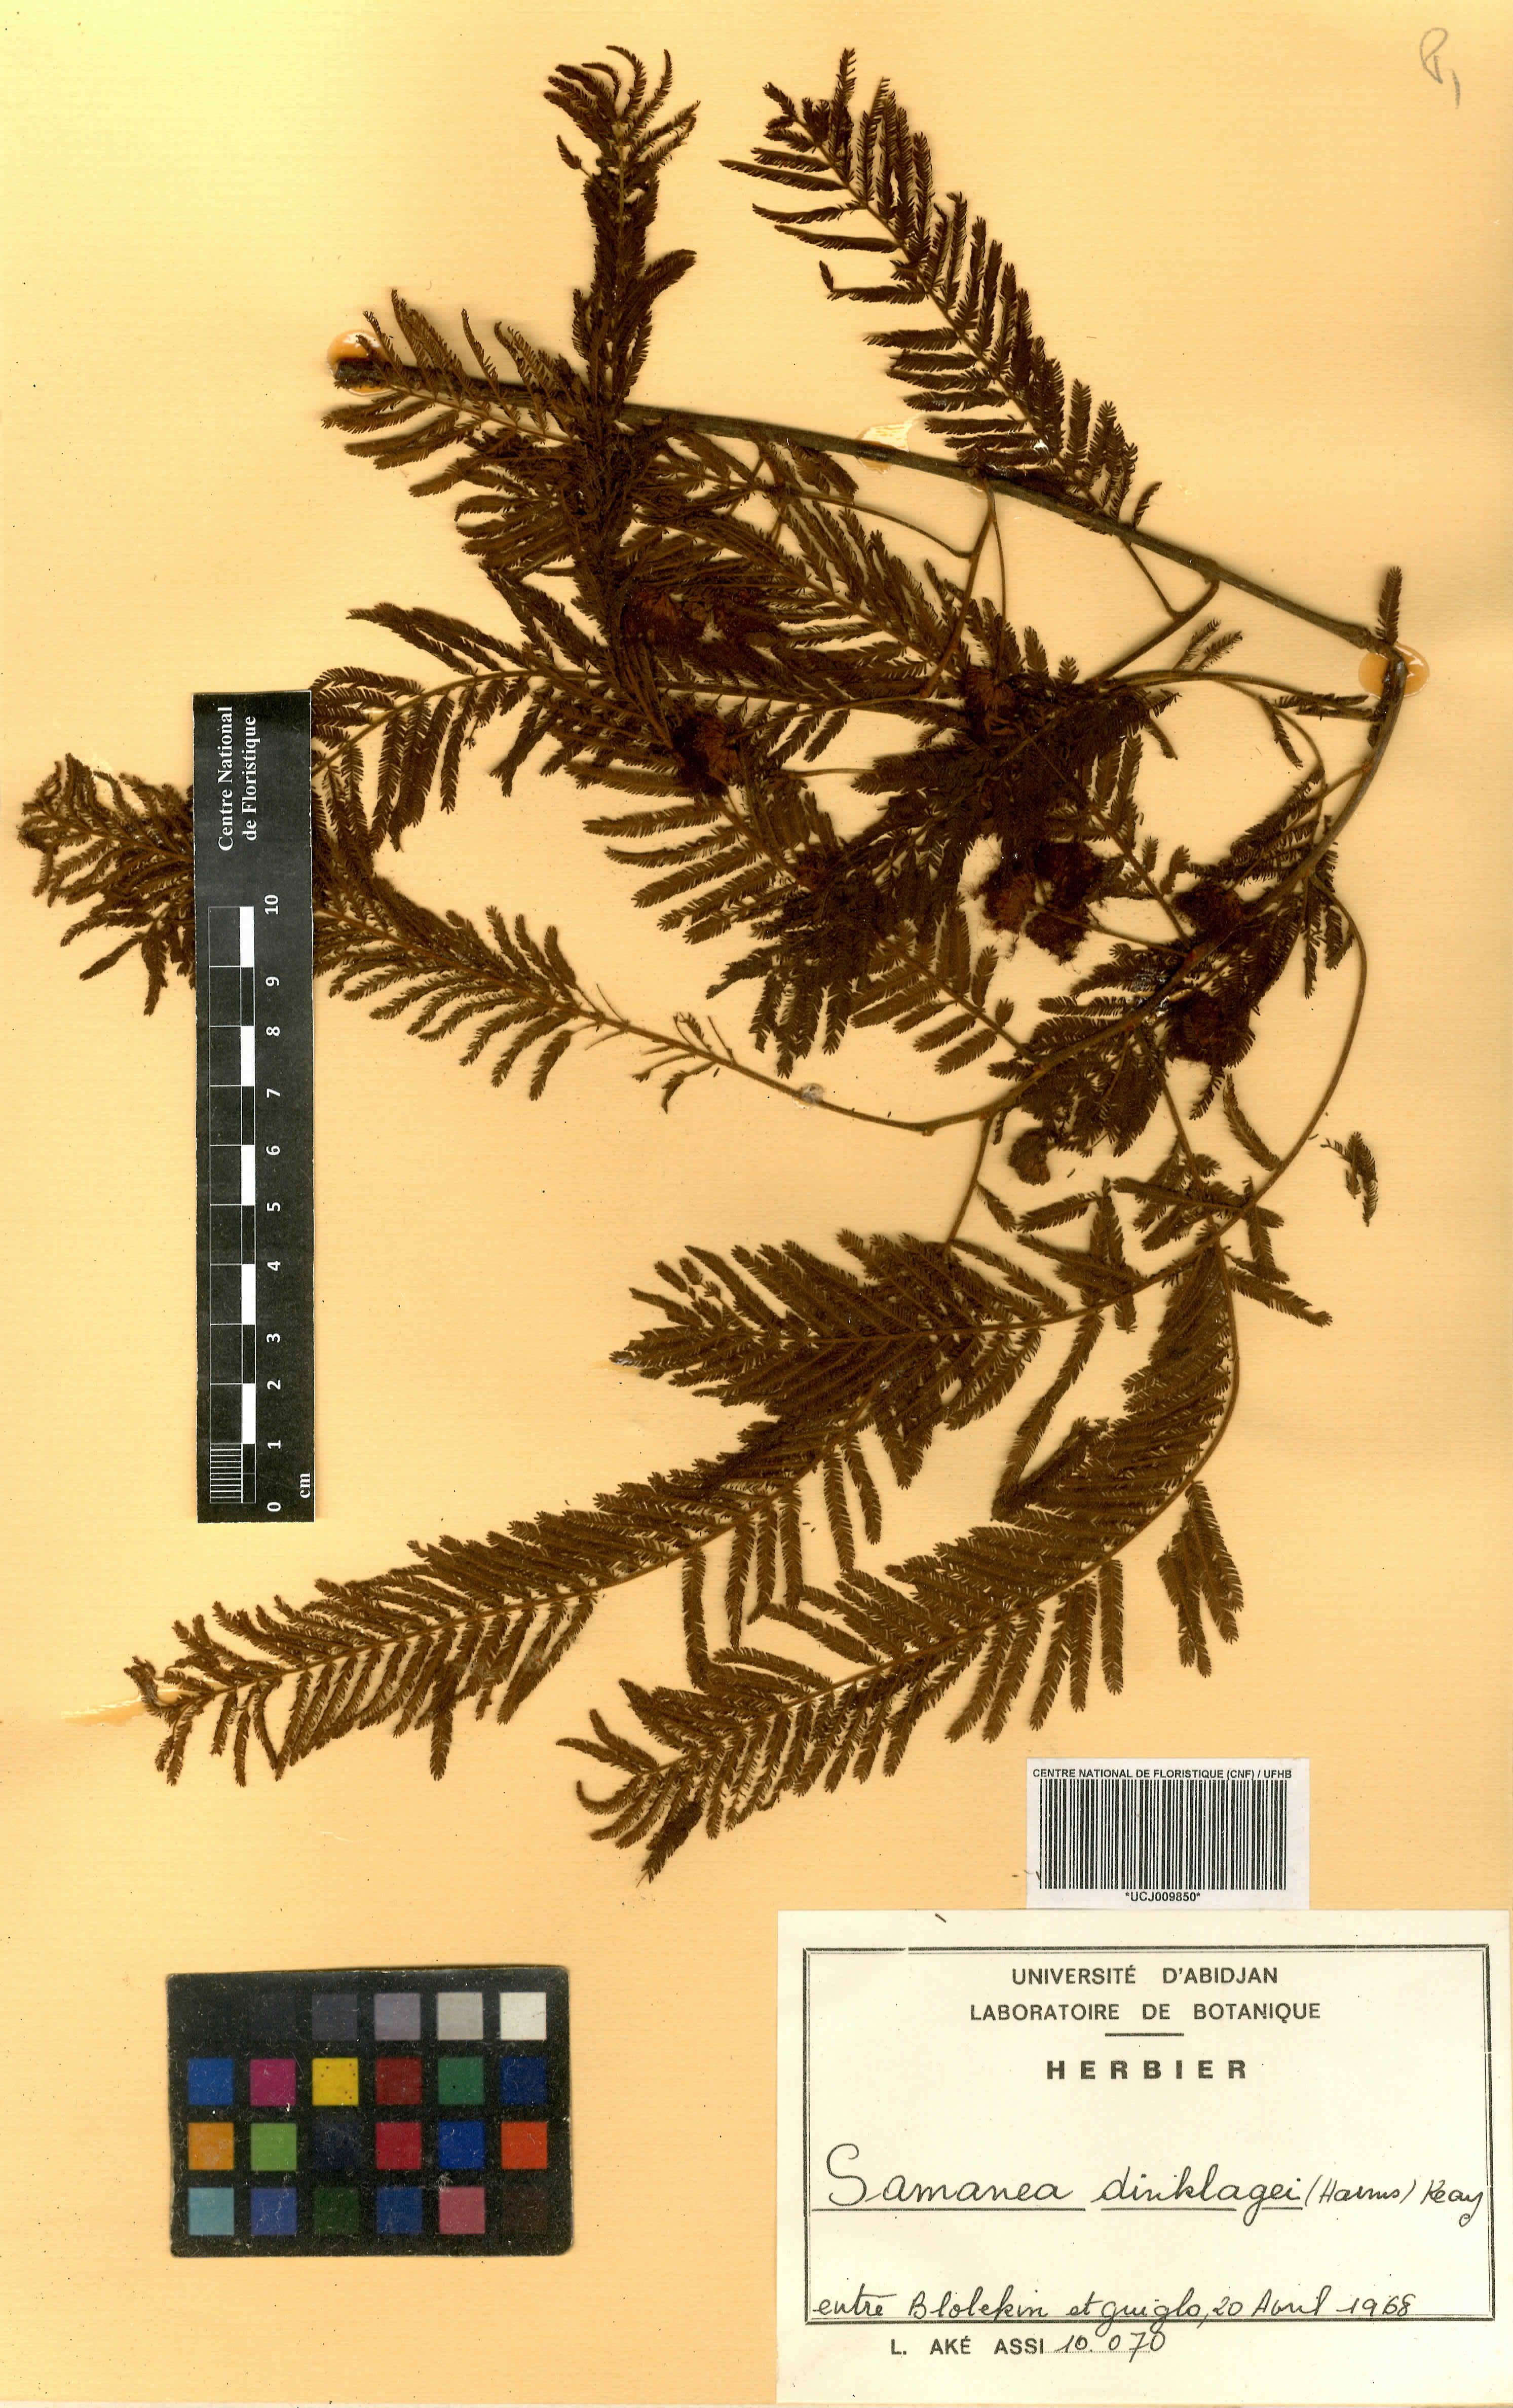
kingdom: Plantae
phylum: Tracheophyta
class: Magnoliopsida
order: Fabales
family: Fabaceae
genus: Albizia
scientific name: Albizia dinklagei
